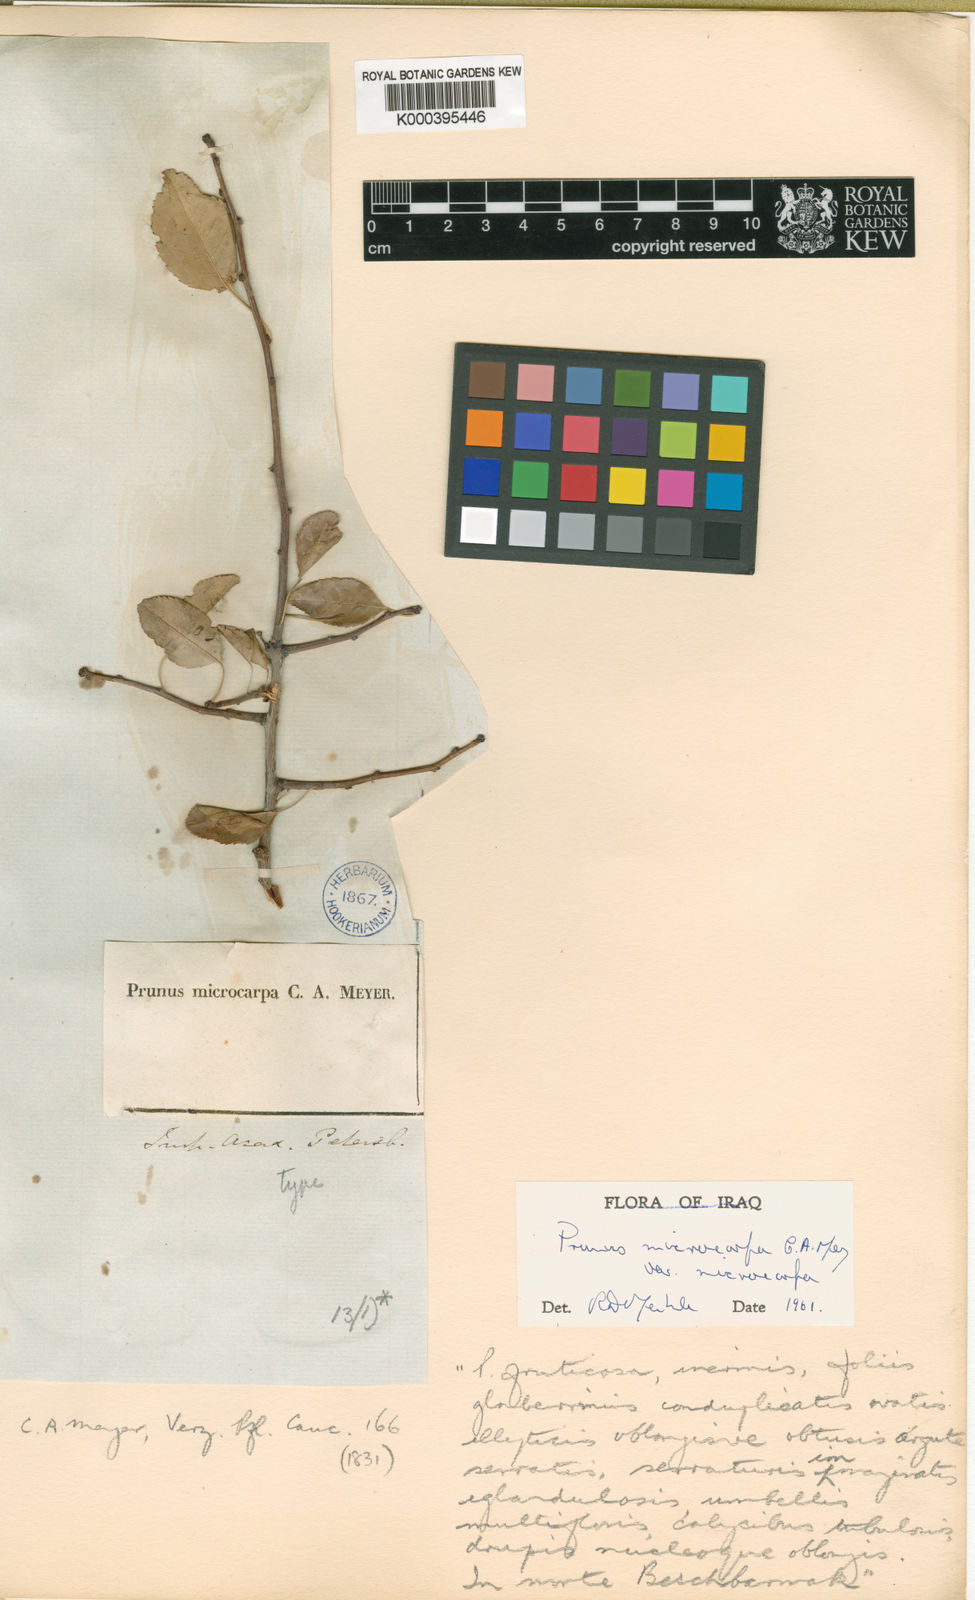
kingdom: Plantae
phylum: Tracheophyta
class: Magnoliopsida
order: Rosales
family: Rosaceae
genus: Prunus
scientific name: Prunus microcarpa
